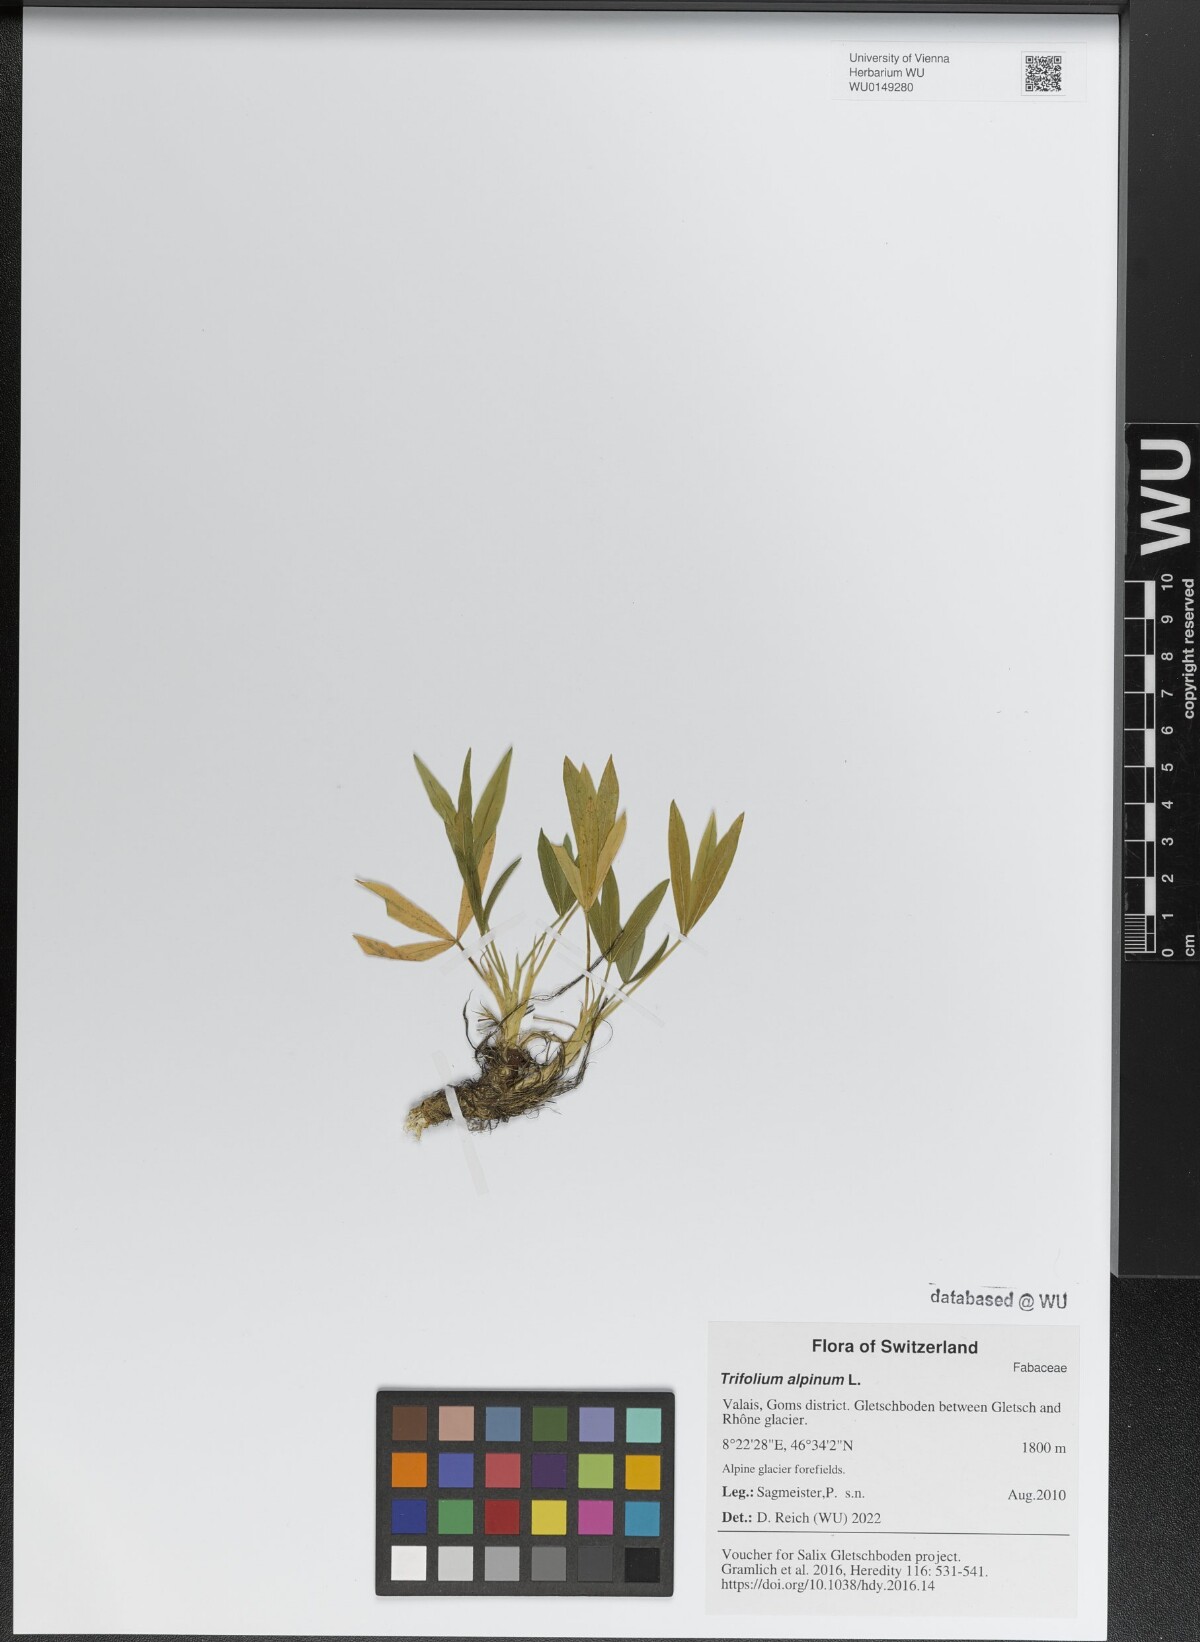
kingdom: Plantae
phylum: Tracheophyta
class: Magnoliopsida
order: Fabales
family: Fabaceae
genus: Trifolium
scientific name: Trifolium alpinum
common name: Alpine clover
